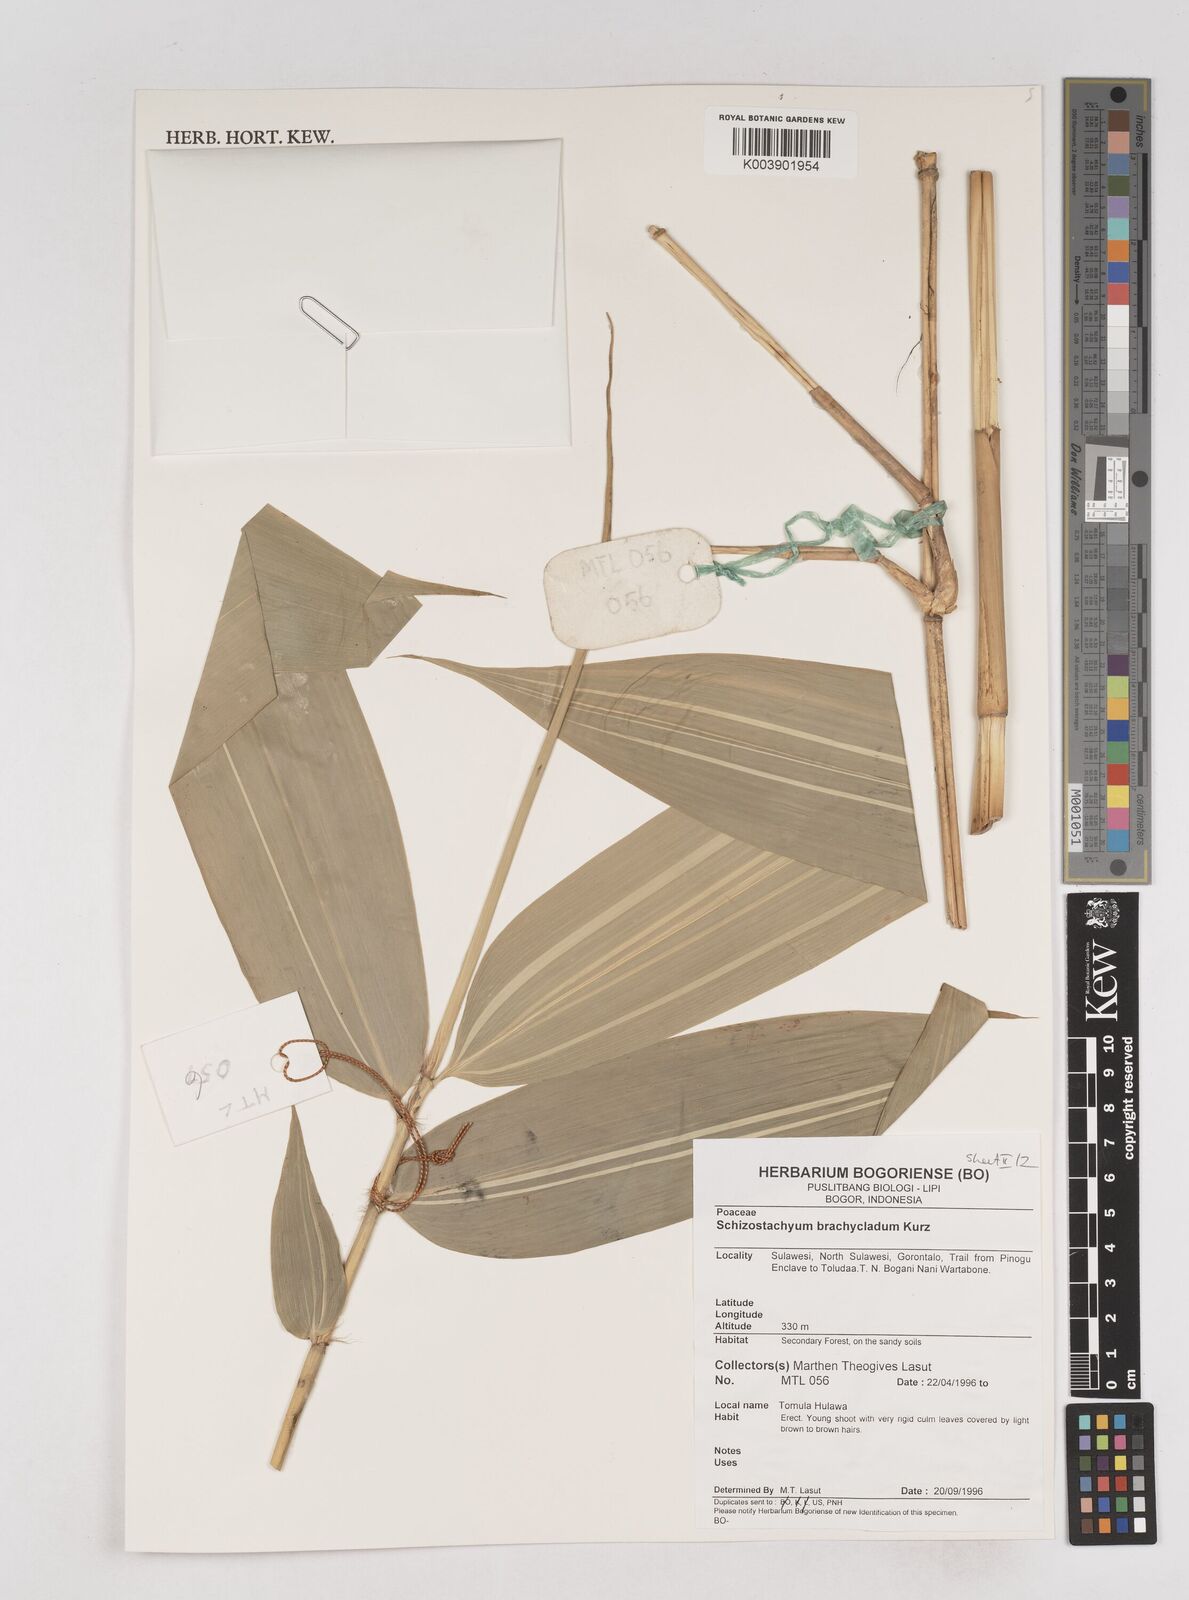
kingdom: Plantae
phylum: Tracheophyta
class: Liliopsida
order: Poales
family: Poaceae
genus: Schizostachyum
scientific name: Schizostachyum brachycladum
